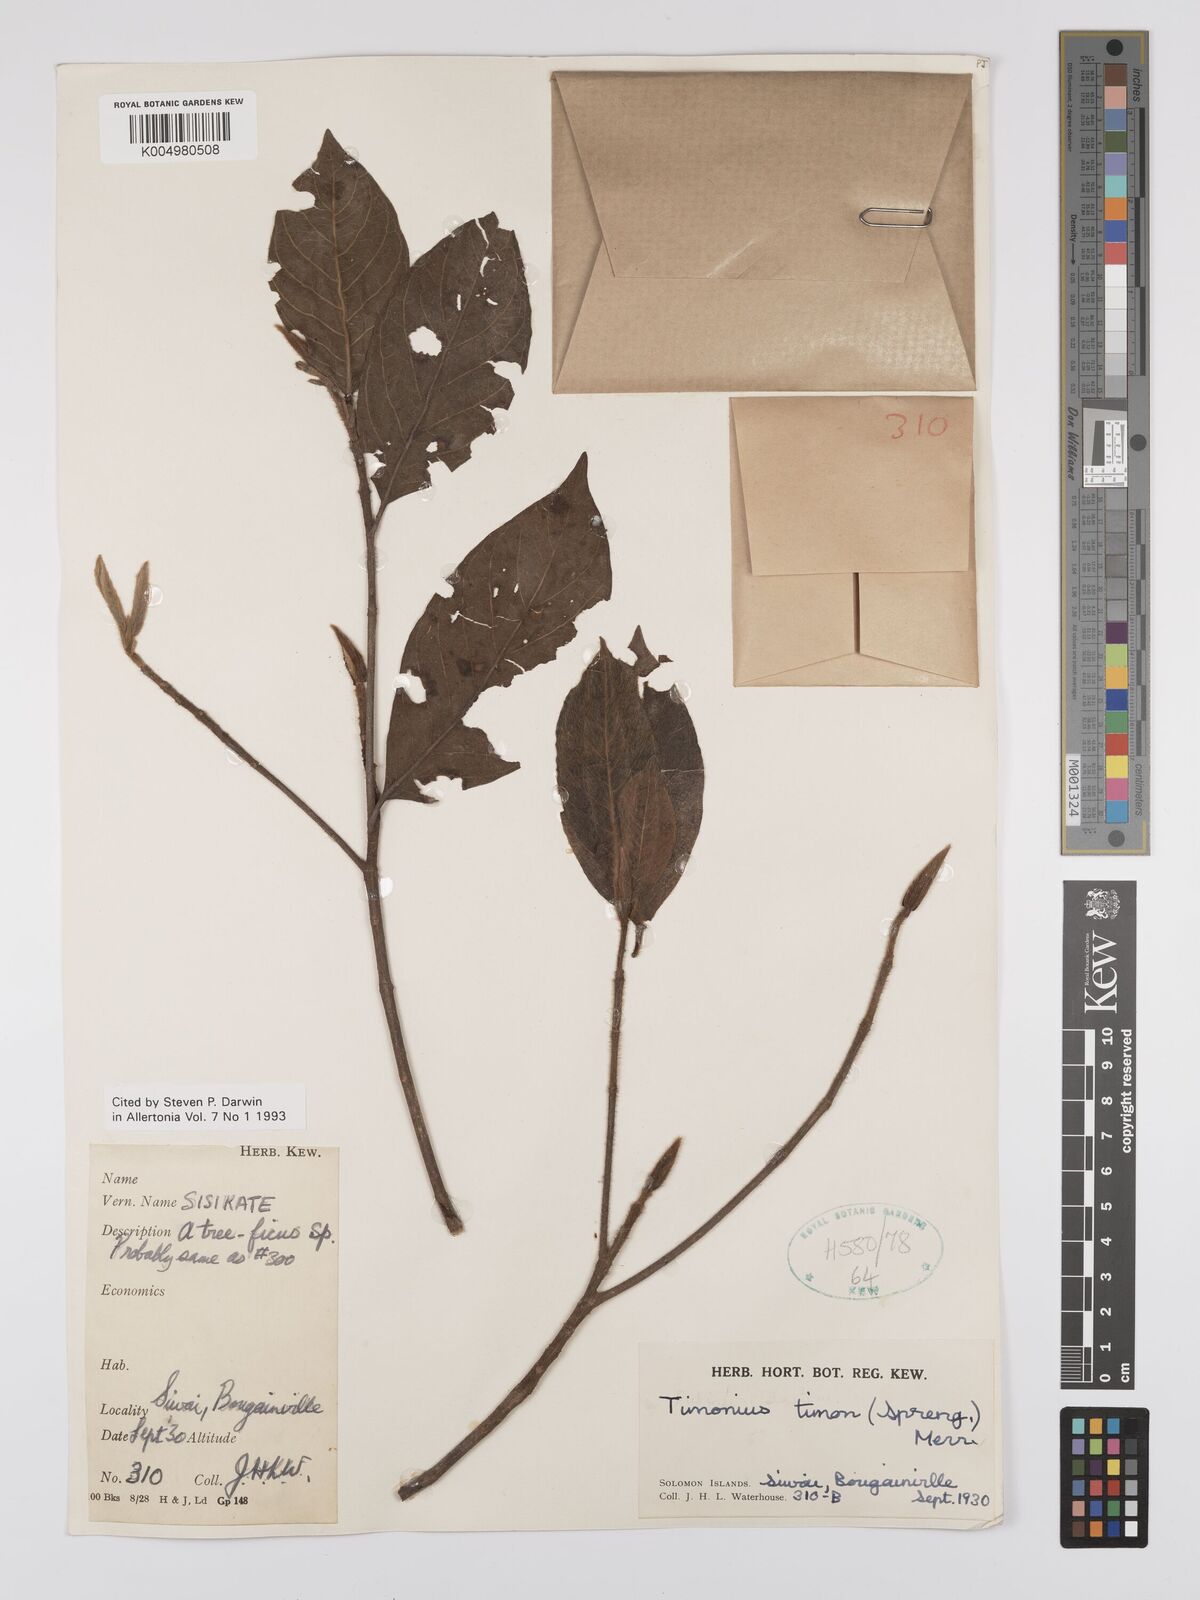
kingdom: Plantae
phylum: Tracheophyta
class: Magnoliopsida
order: Gentianales
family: Rubiaceae
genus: Timonius
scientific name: Timonius timon
